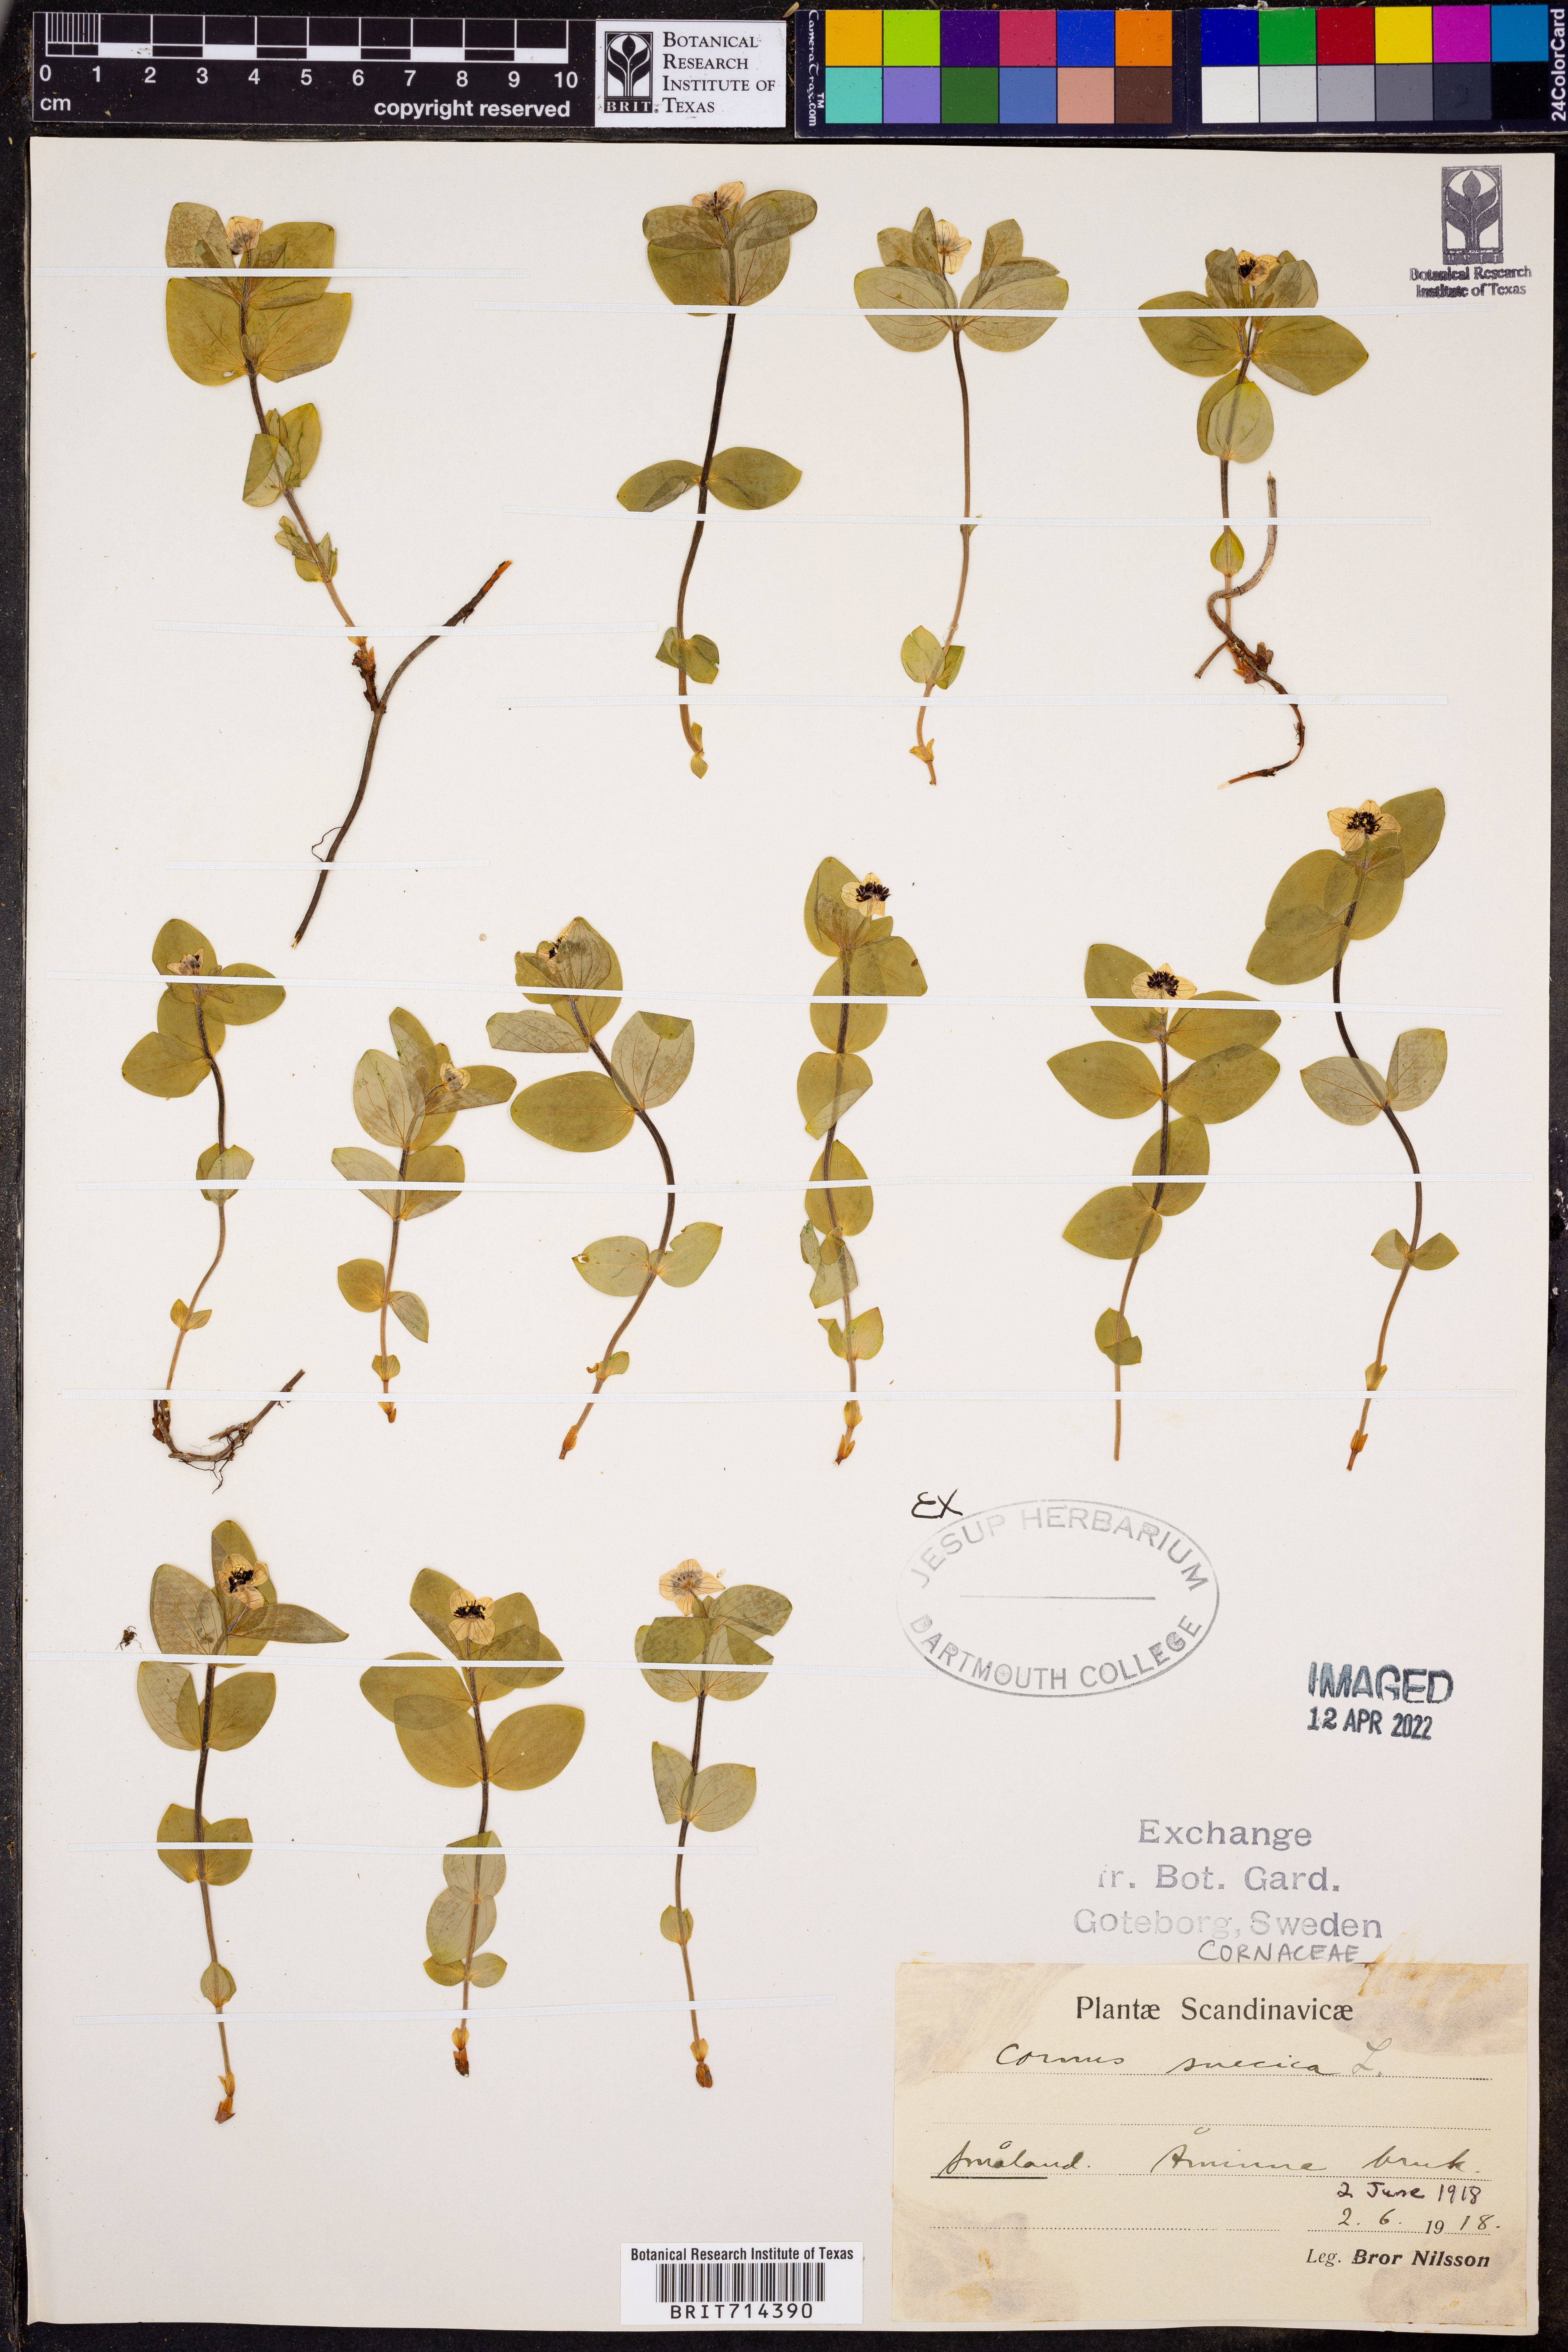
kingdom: Plantae
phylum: Tracheophyta
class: Magnoliopsida
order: Cornales
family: Cornaceae
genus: Cornus
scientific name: Cornus
